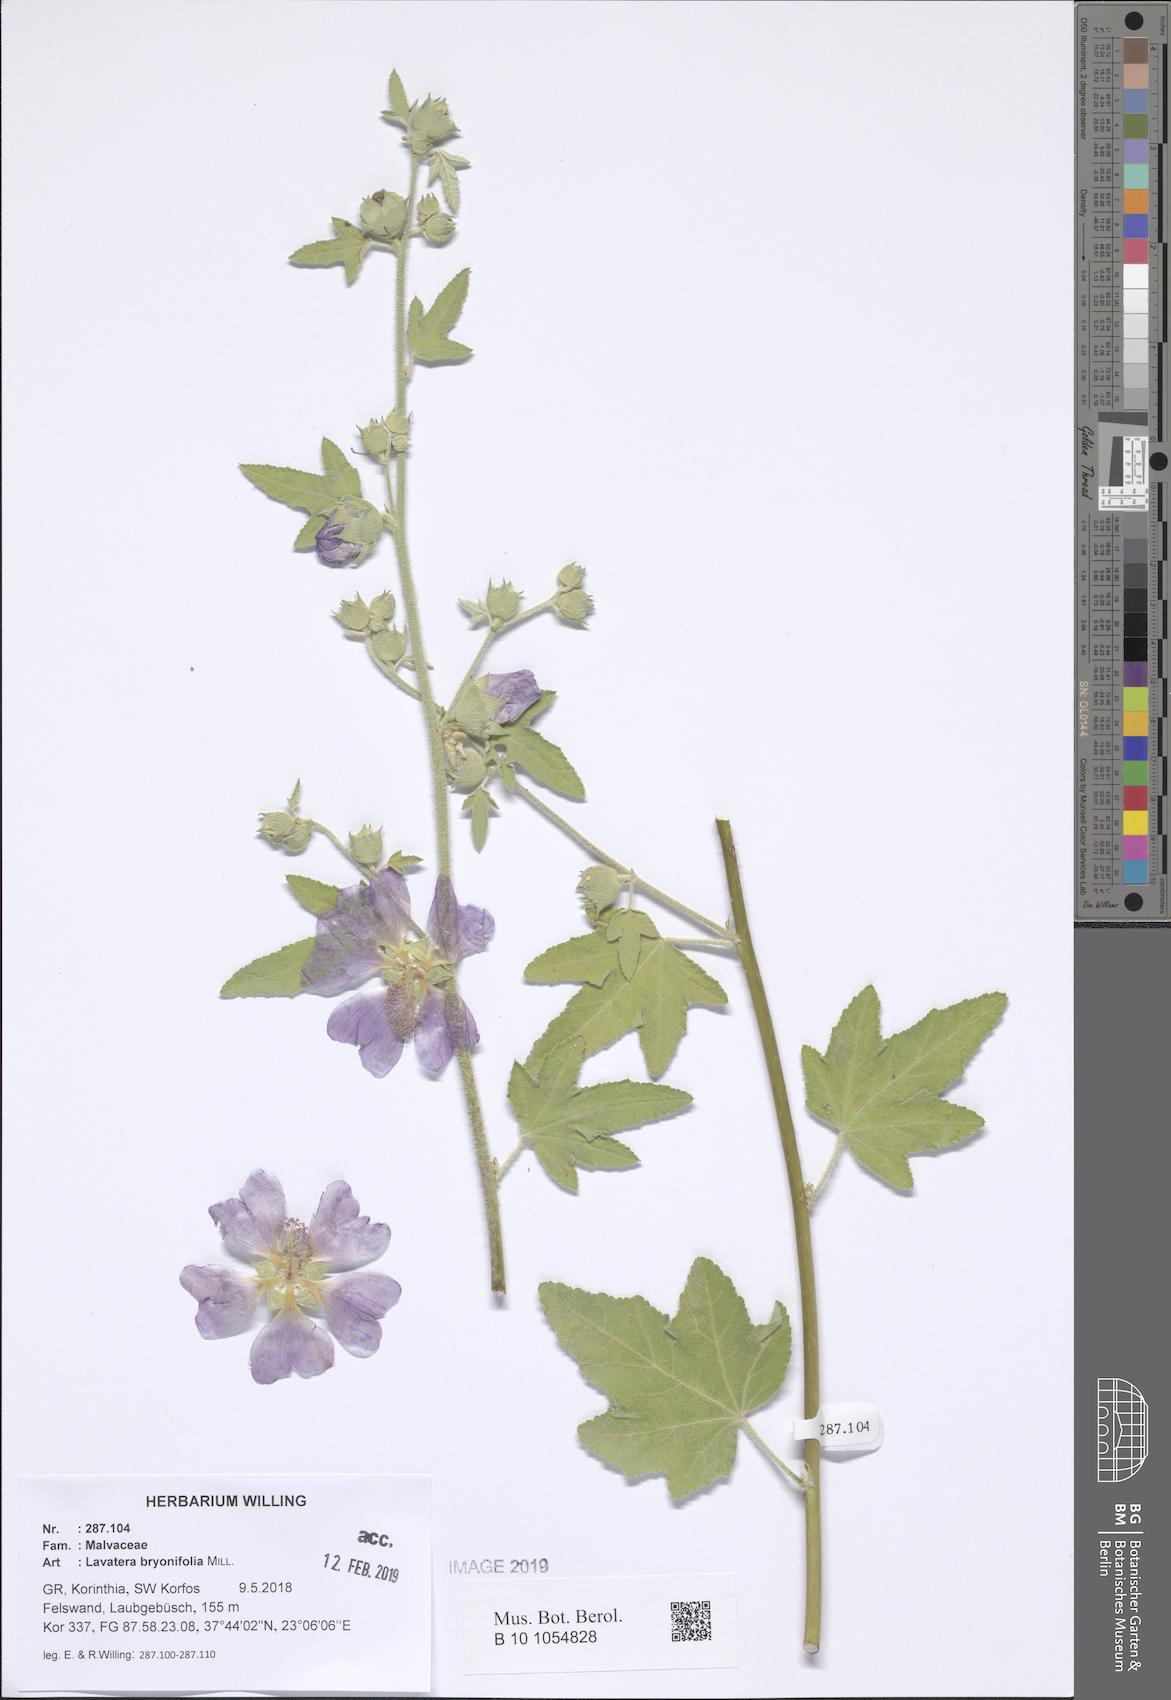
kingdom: Plantae
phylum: Tracheophyta
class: Magnoliopsida
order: Malvales
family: Malvaceae
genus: Malva
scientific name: Malva unguiculata
